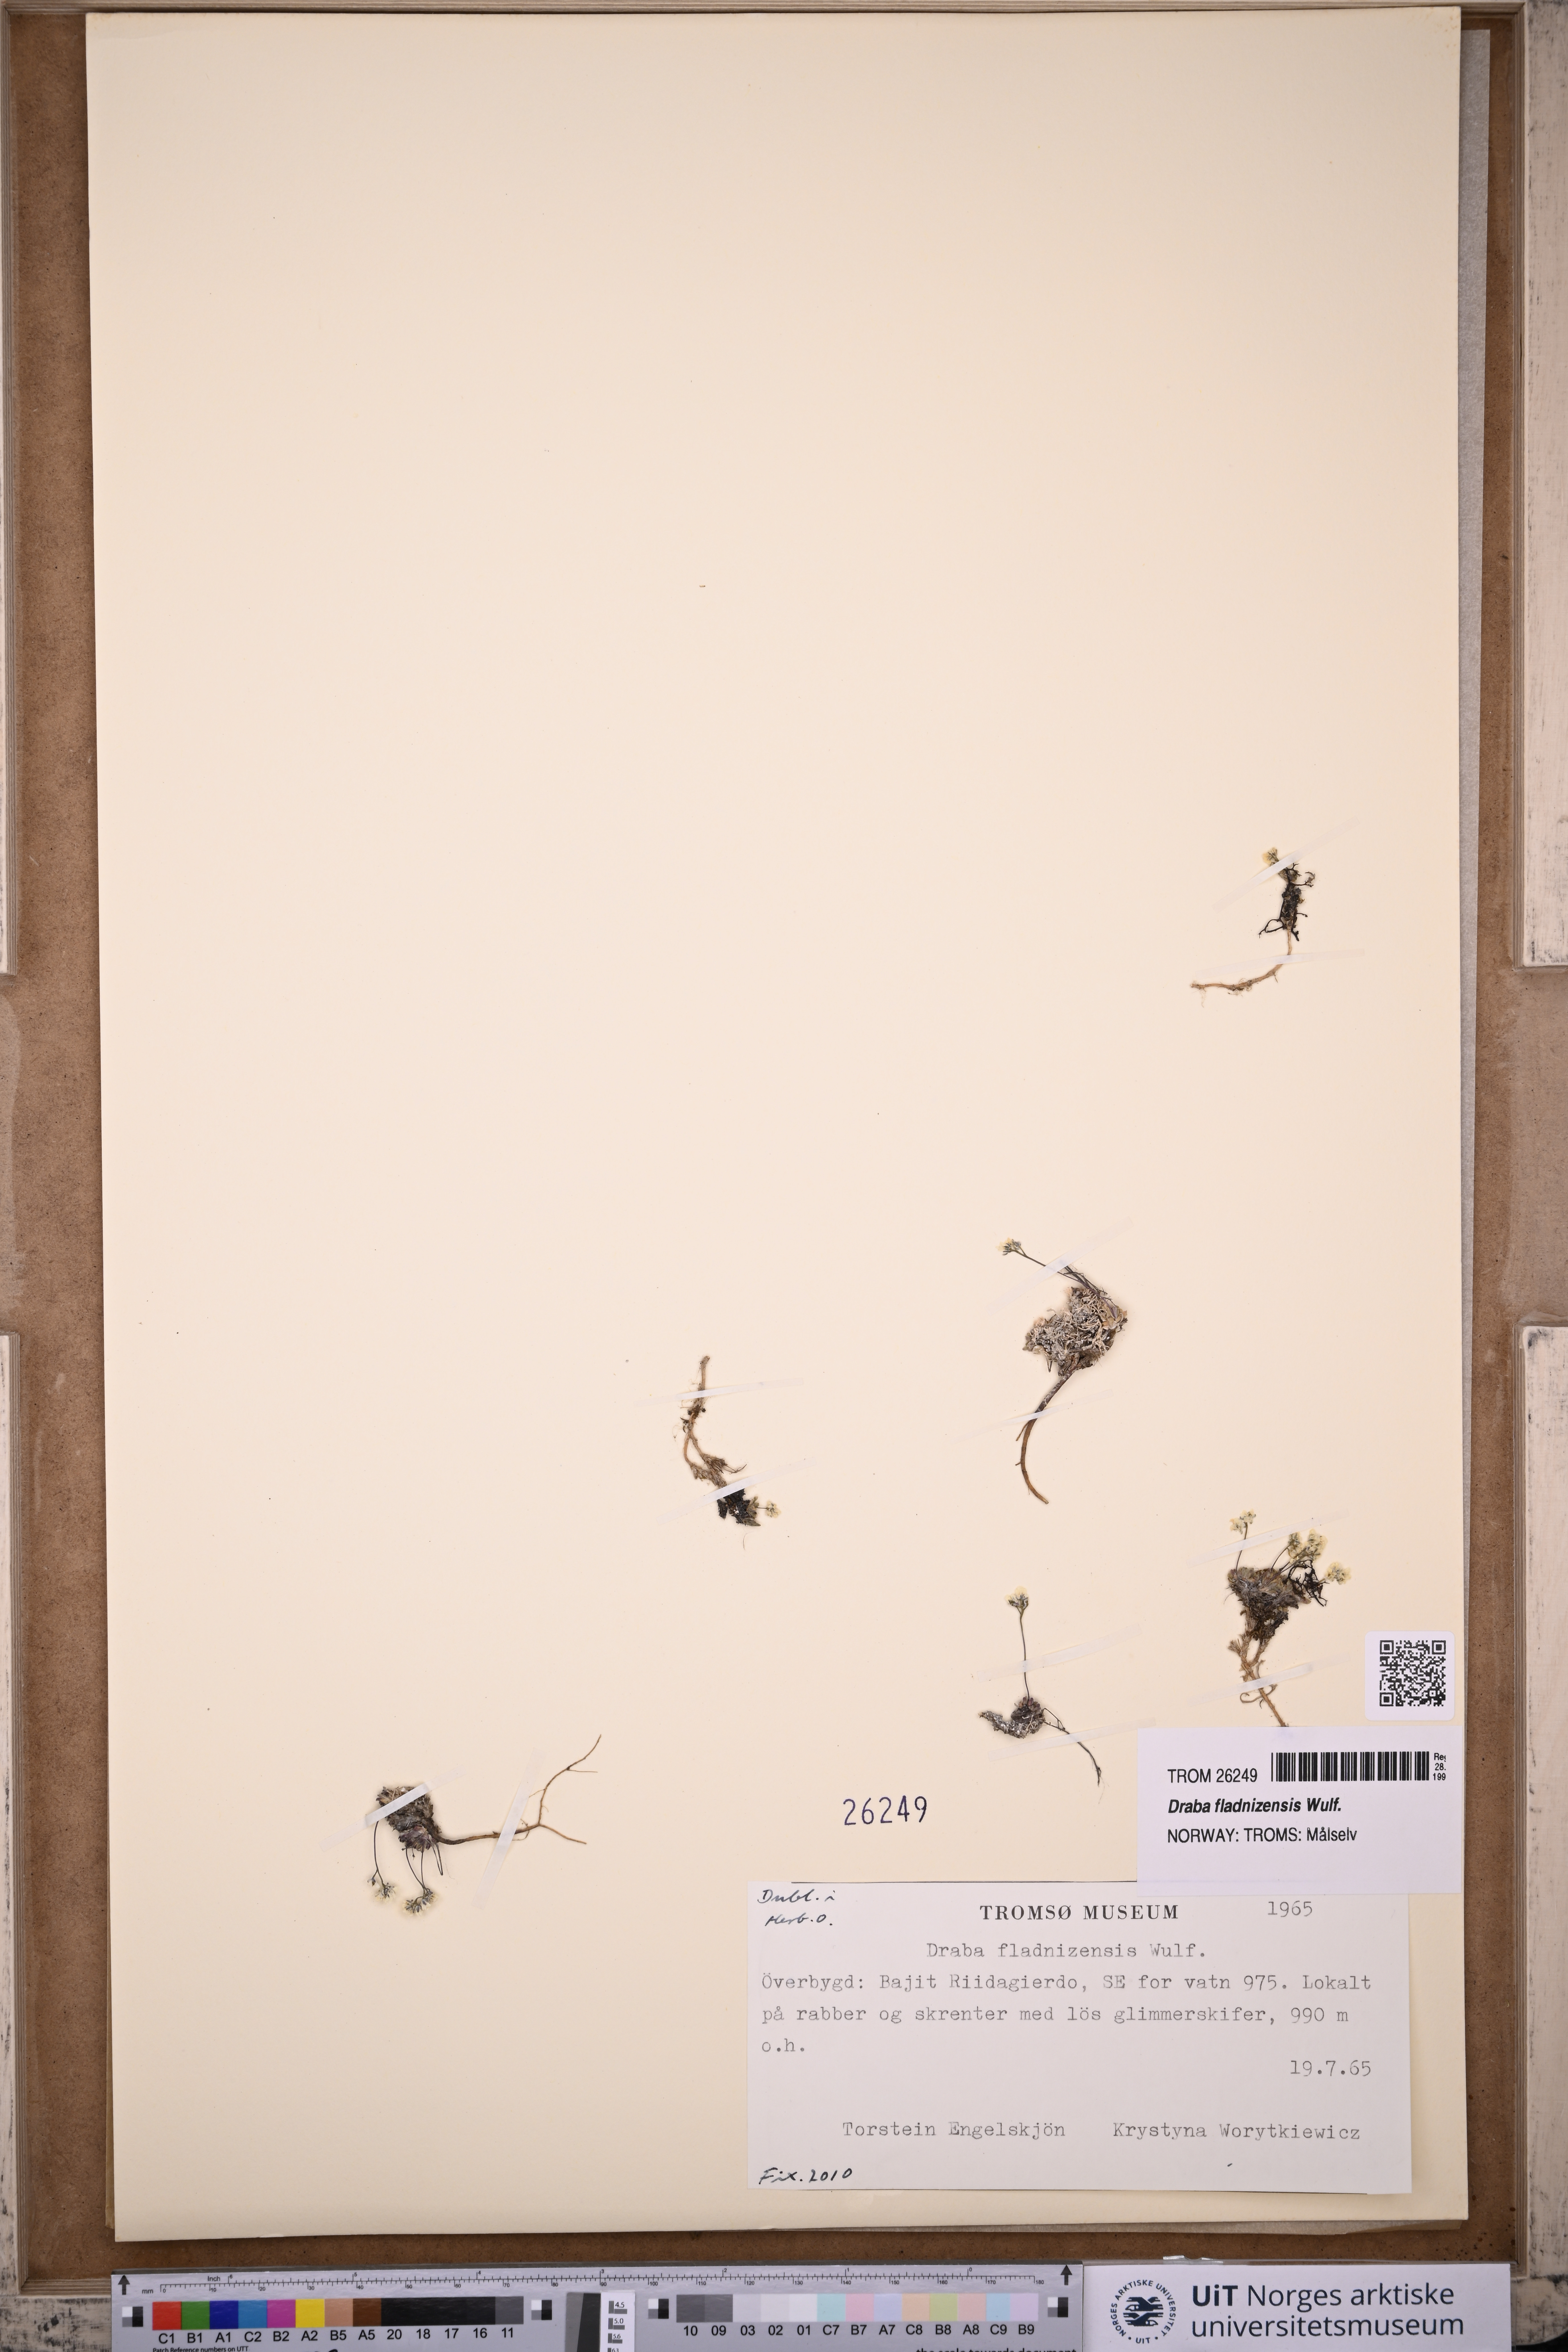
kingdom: Plantae
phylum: Tracheophyta
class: Magnoliopsida
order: Brassicales
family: Brassicaceae
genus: Draba
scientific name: Draba fladnizensis
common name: Austrian draba
